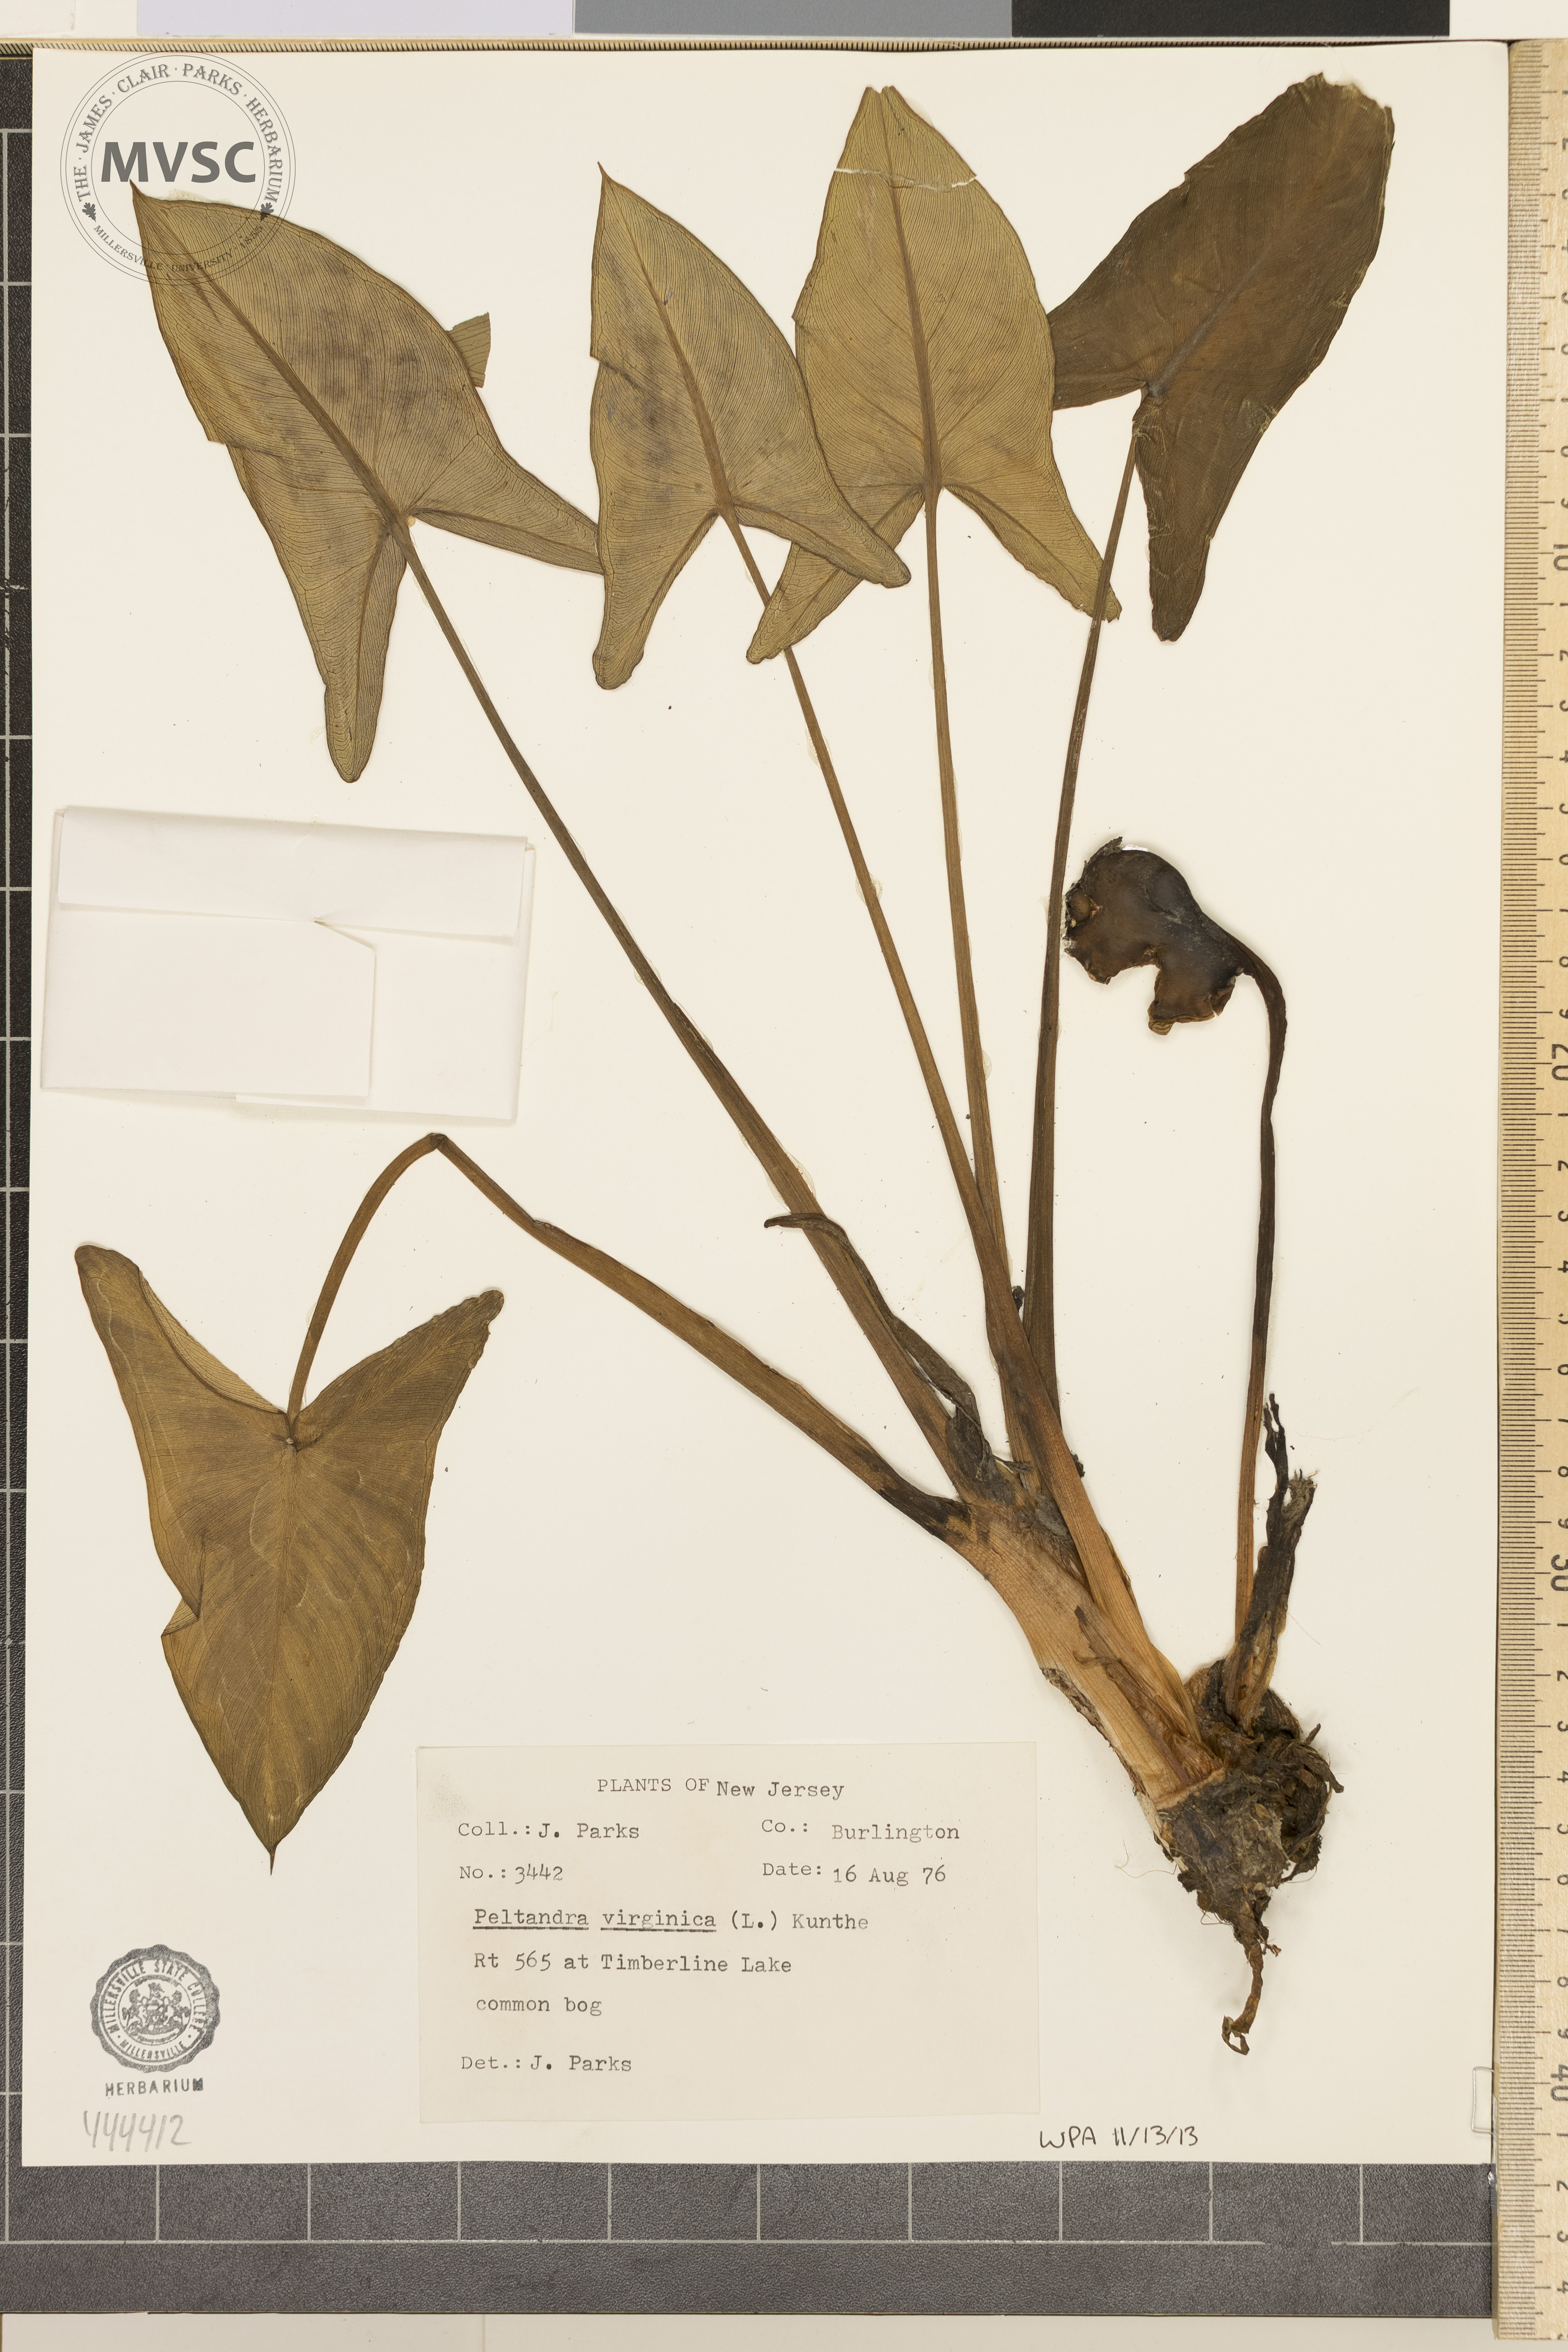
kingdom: Plantae
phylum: Tracheophyta
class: Liliopsida
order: Alismatales
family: Araceae
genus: Peltandra
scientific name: Peltandra virginica
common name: Arrow arum
